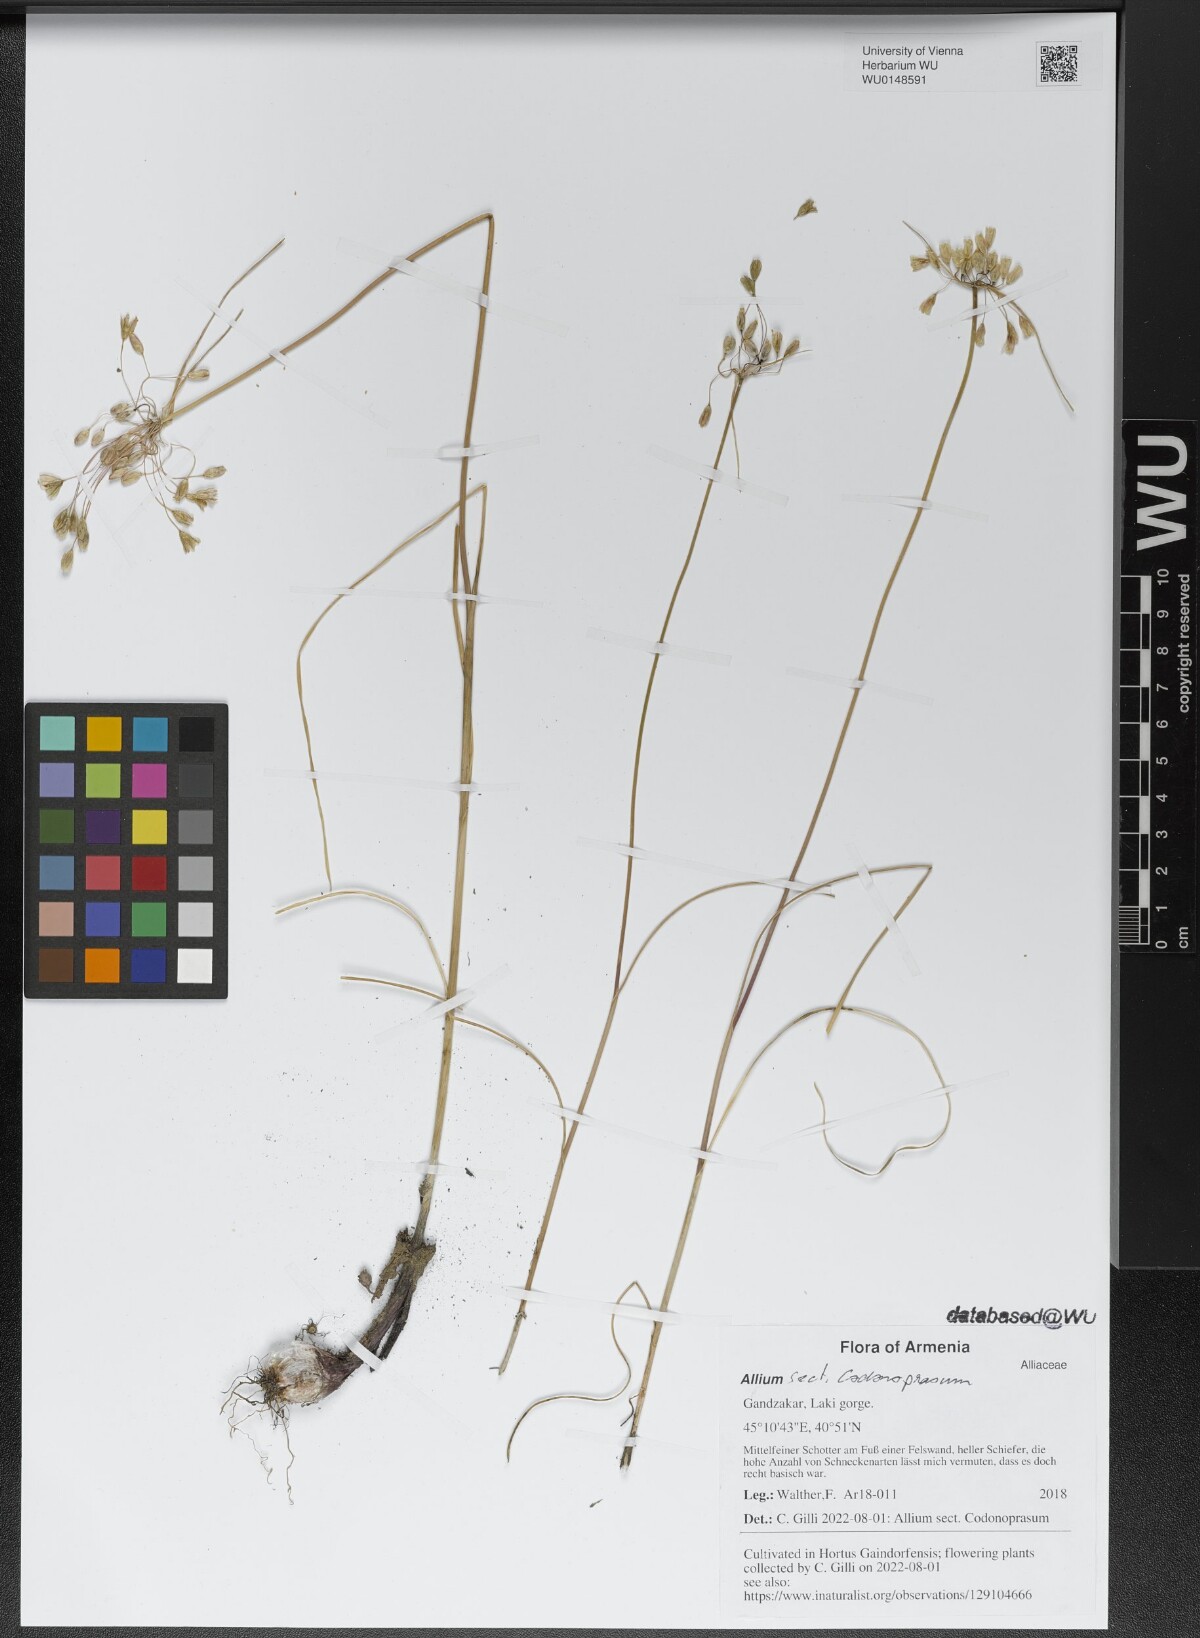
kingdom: Plantae
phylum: Tracheophyta
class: Liliopsida
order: Asparagales
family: Amaryllidaceae
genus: Allium
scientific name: Allium
